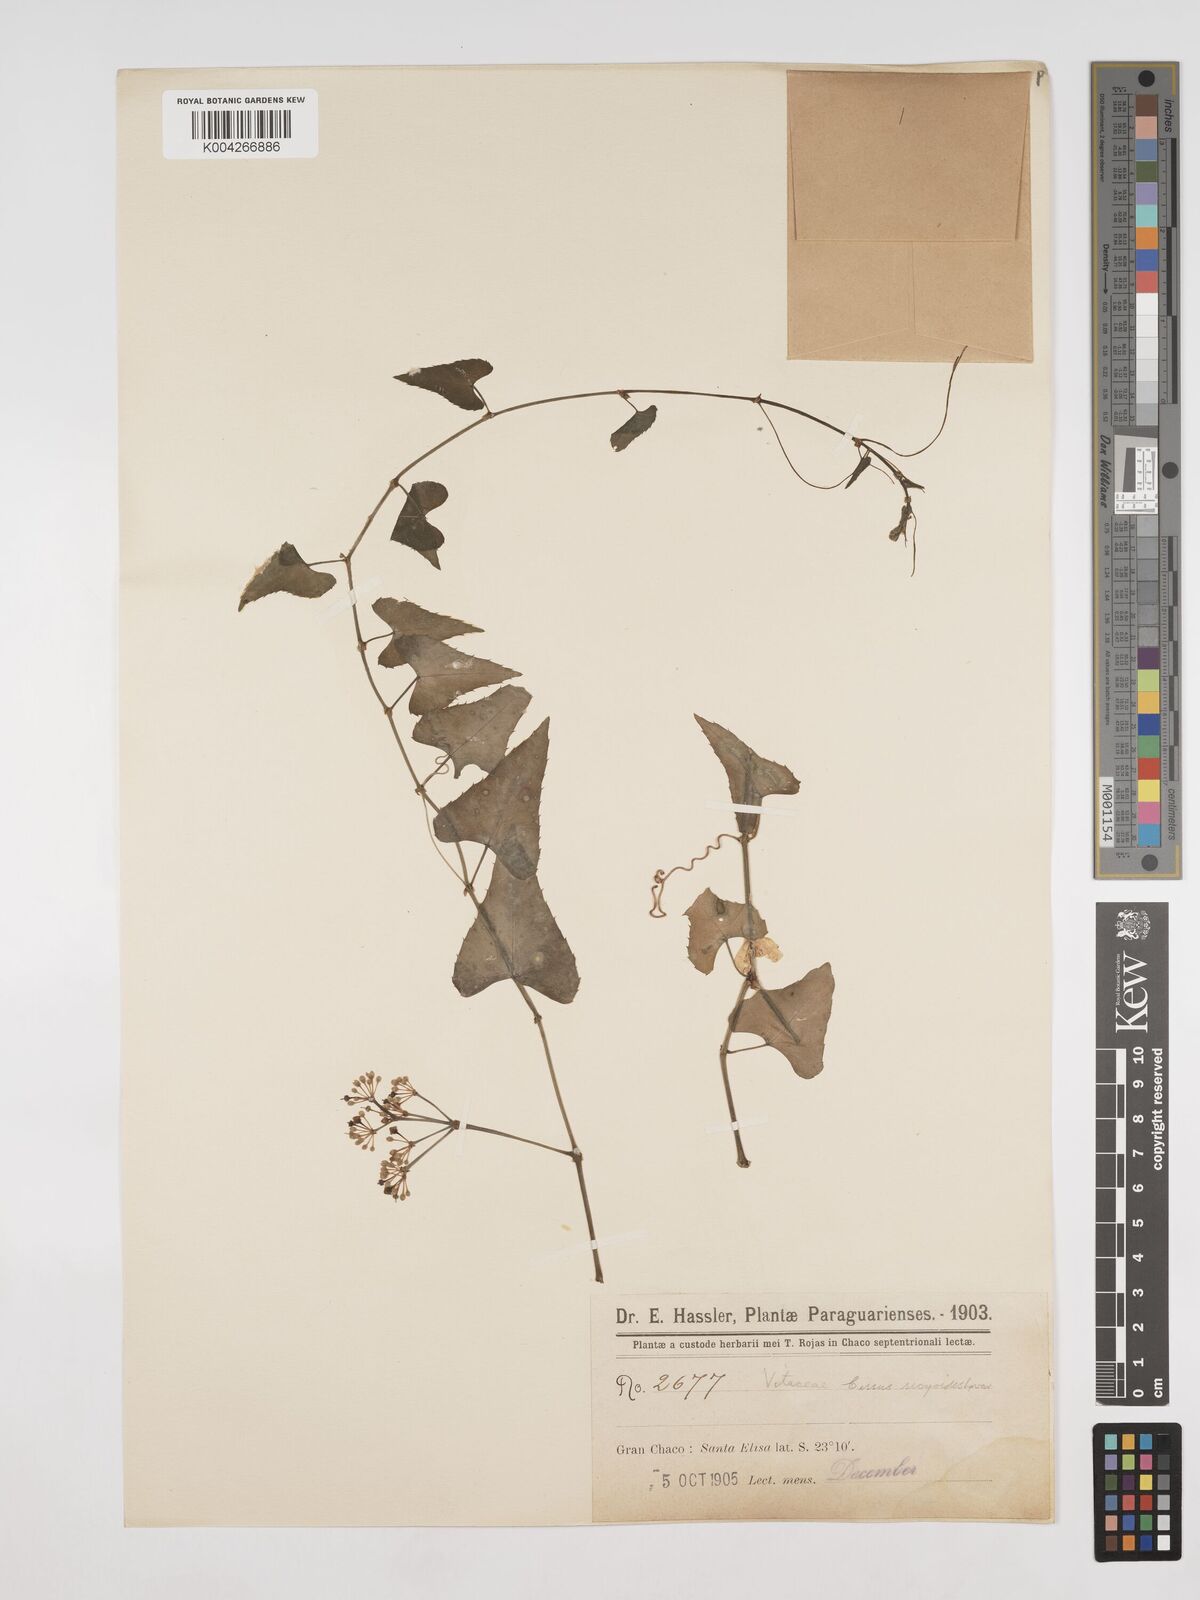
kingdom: Plantae
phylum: Tracheophyta
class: Magnoliopsida
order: Vitales
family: Vitaceae
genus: Cissus
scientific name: Cissus verticillata
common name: Princess vine
